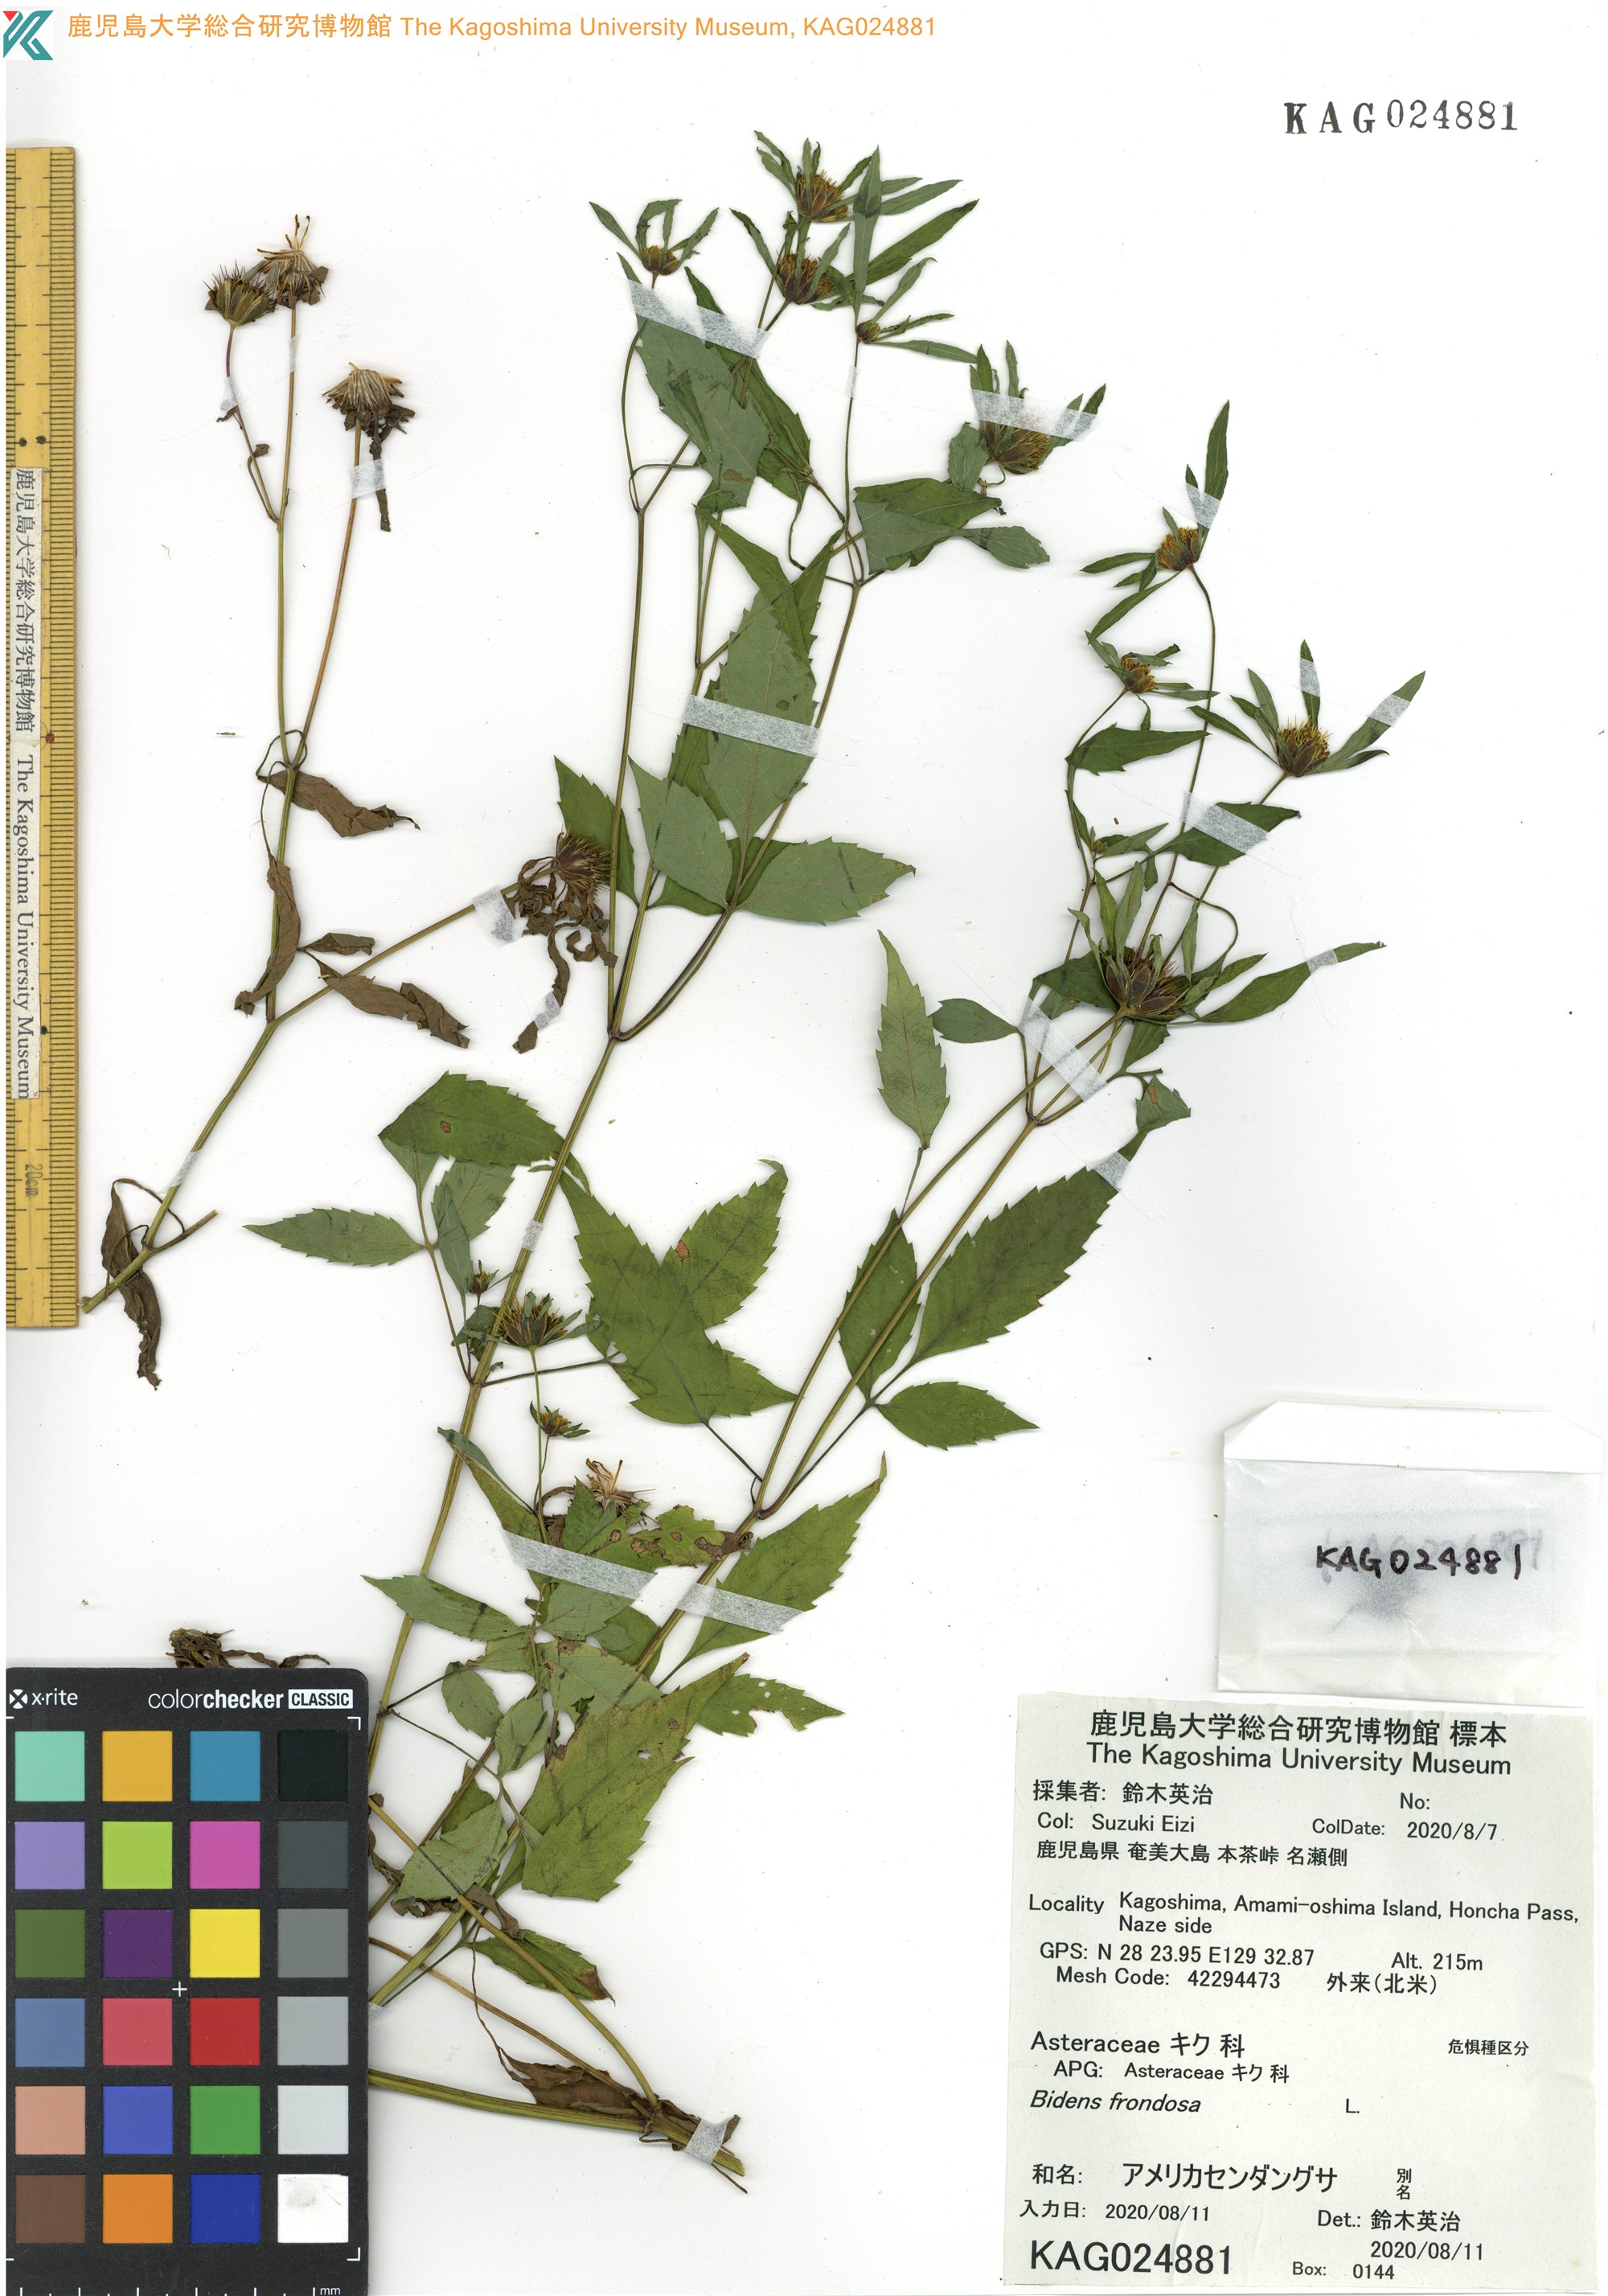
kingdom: Plantae
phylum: Tracheophyta
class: Magnoliopsida
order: Asterales
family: Asteraceae
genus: Bidens
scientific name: Bidens frondosa
